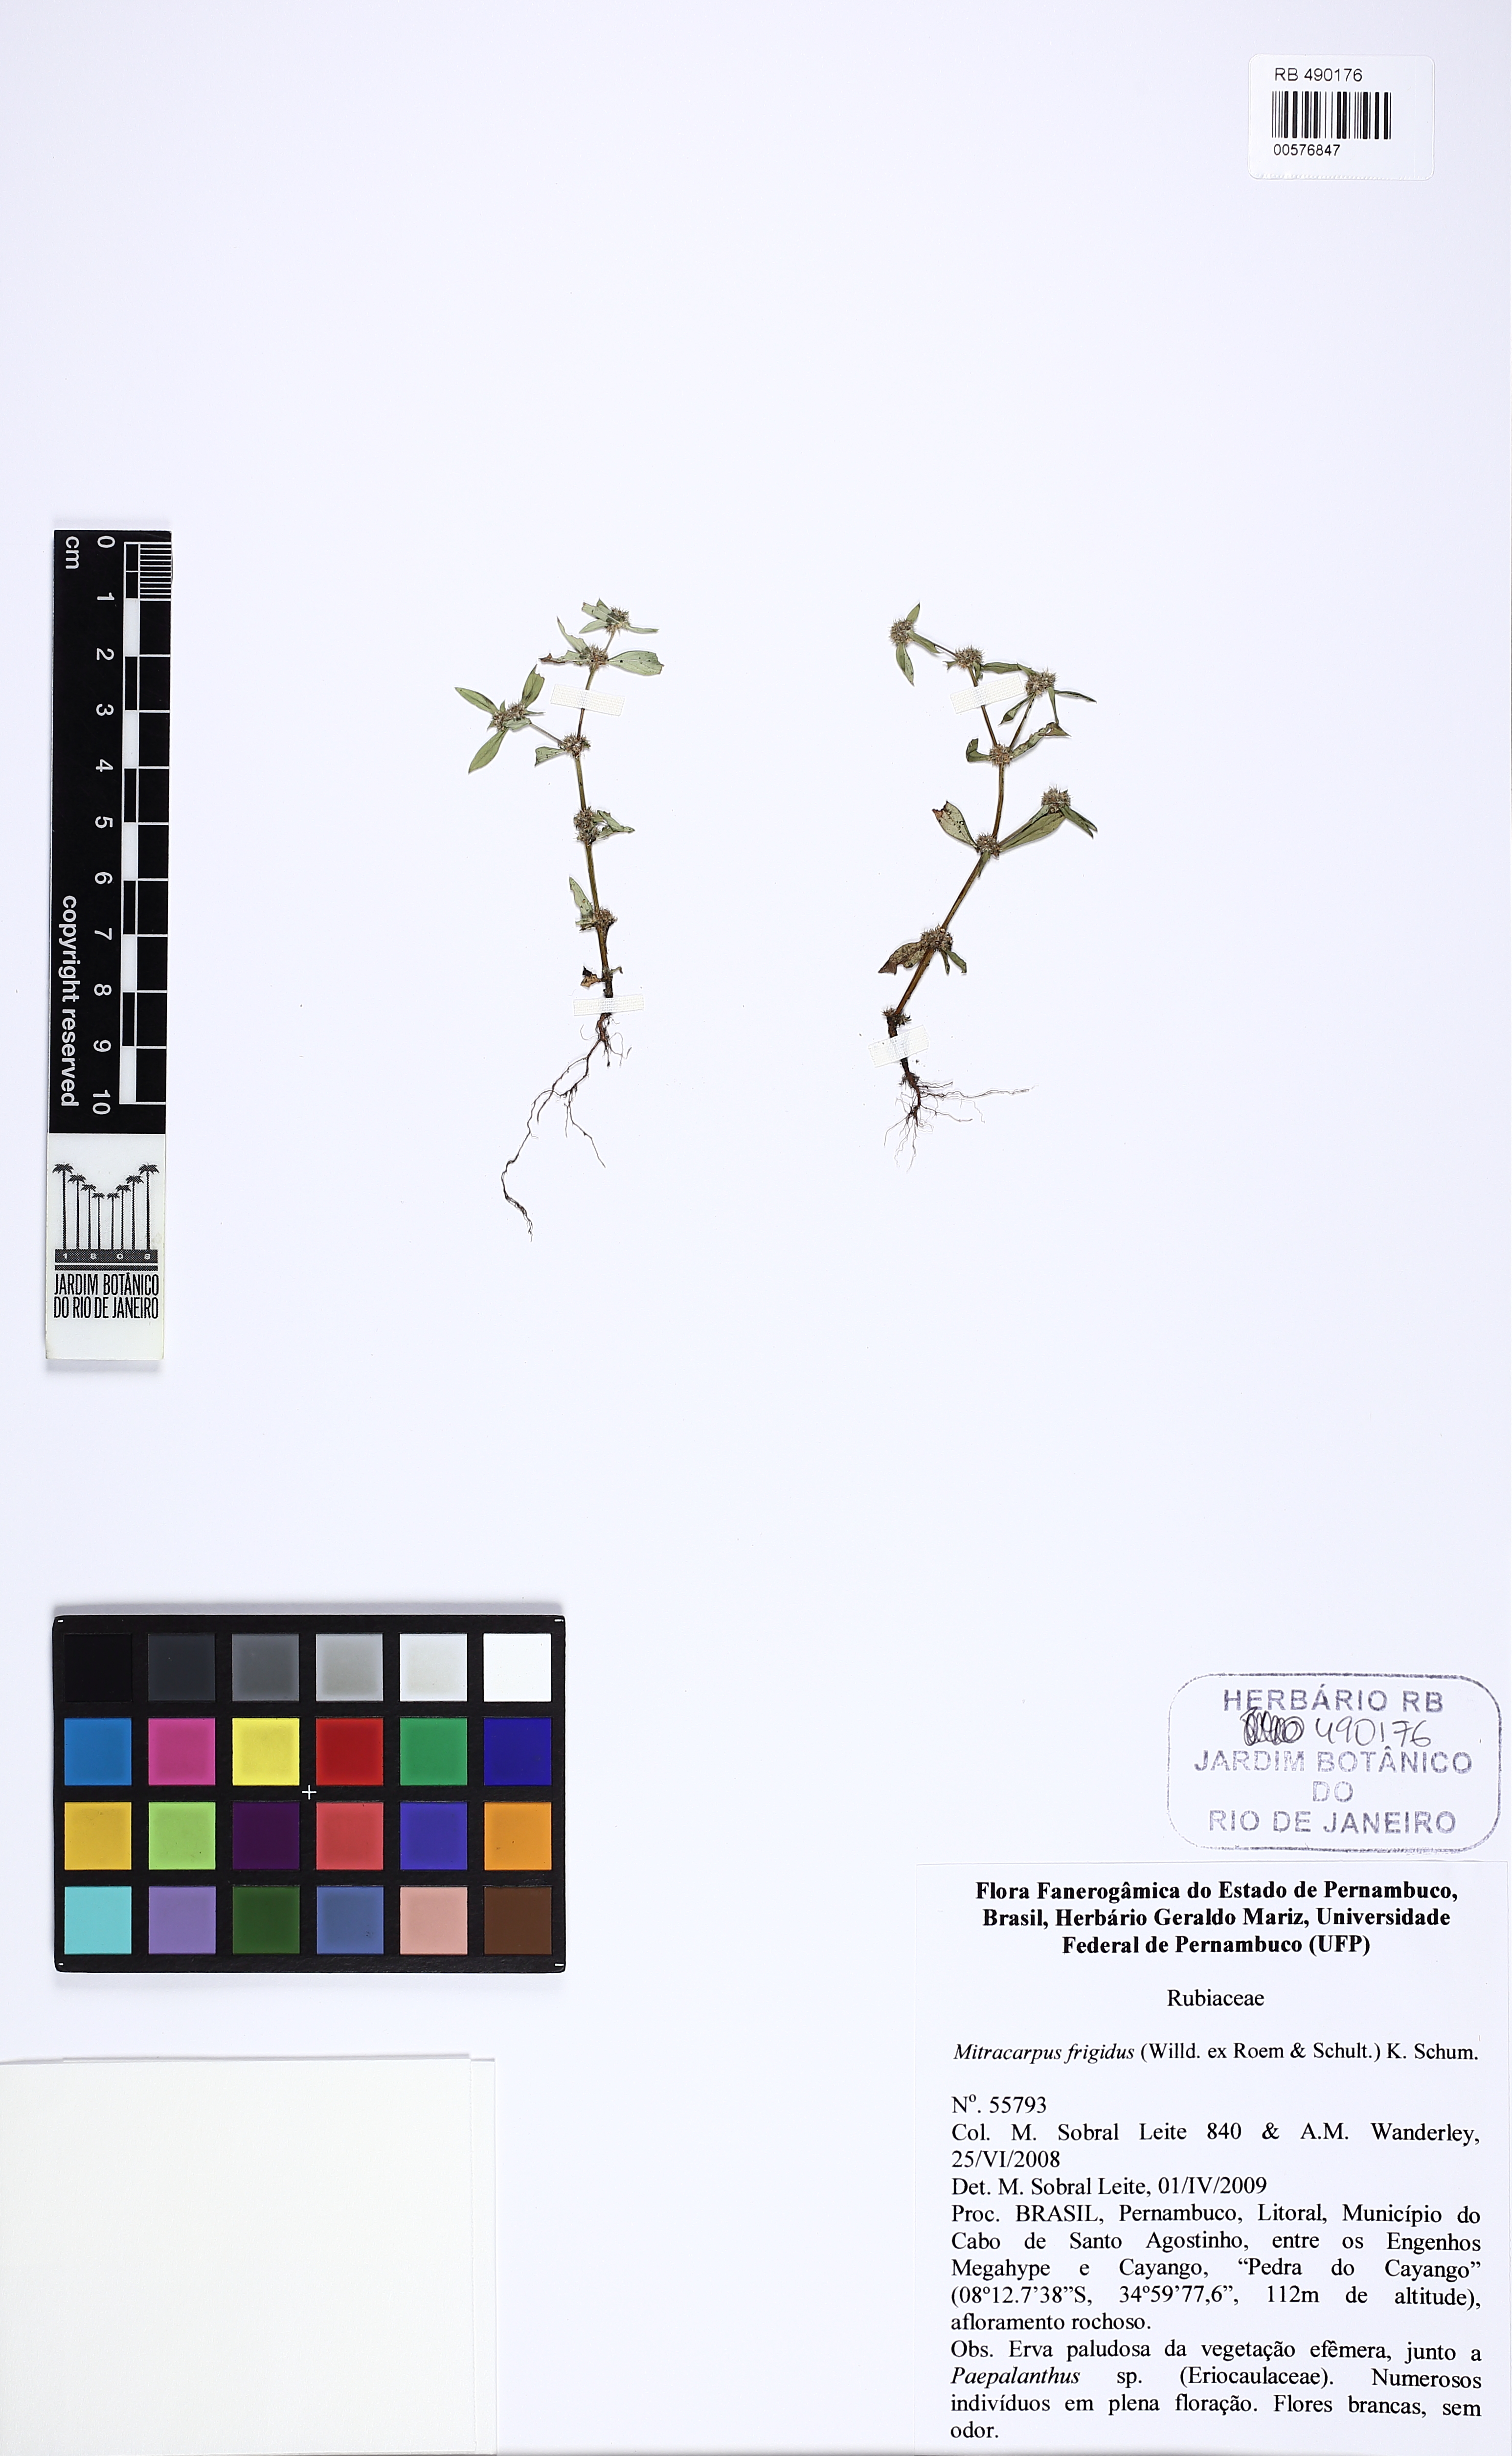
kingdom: Plantae
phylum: Tracheophyta
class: Magnoliopsida
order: Gentianales
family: Rubiaceae
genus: Mitracarpus
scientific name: Mitracarpus frigidus
